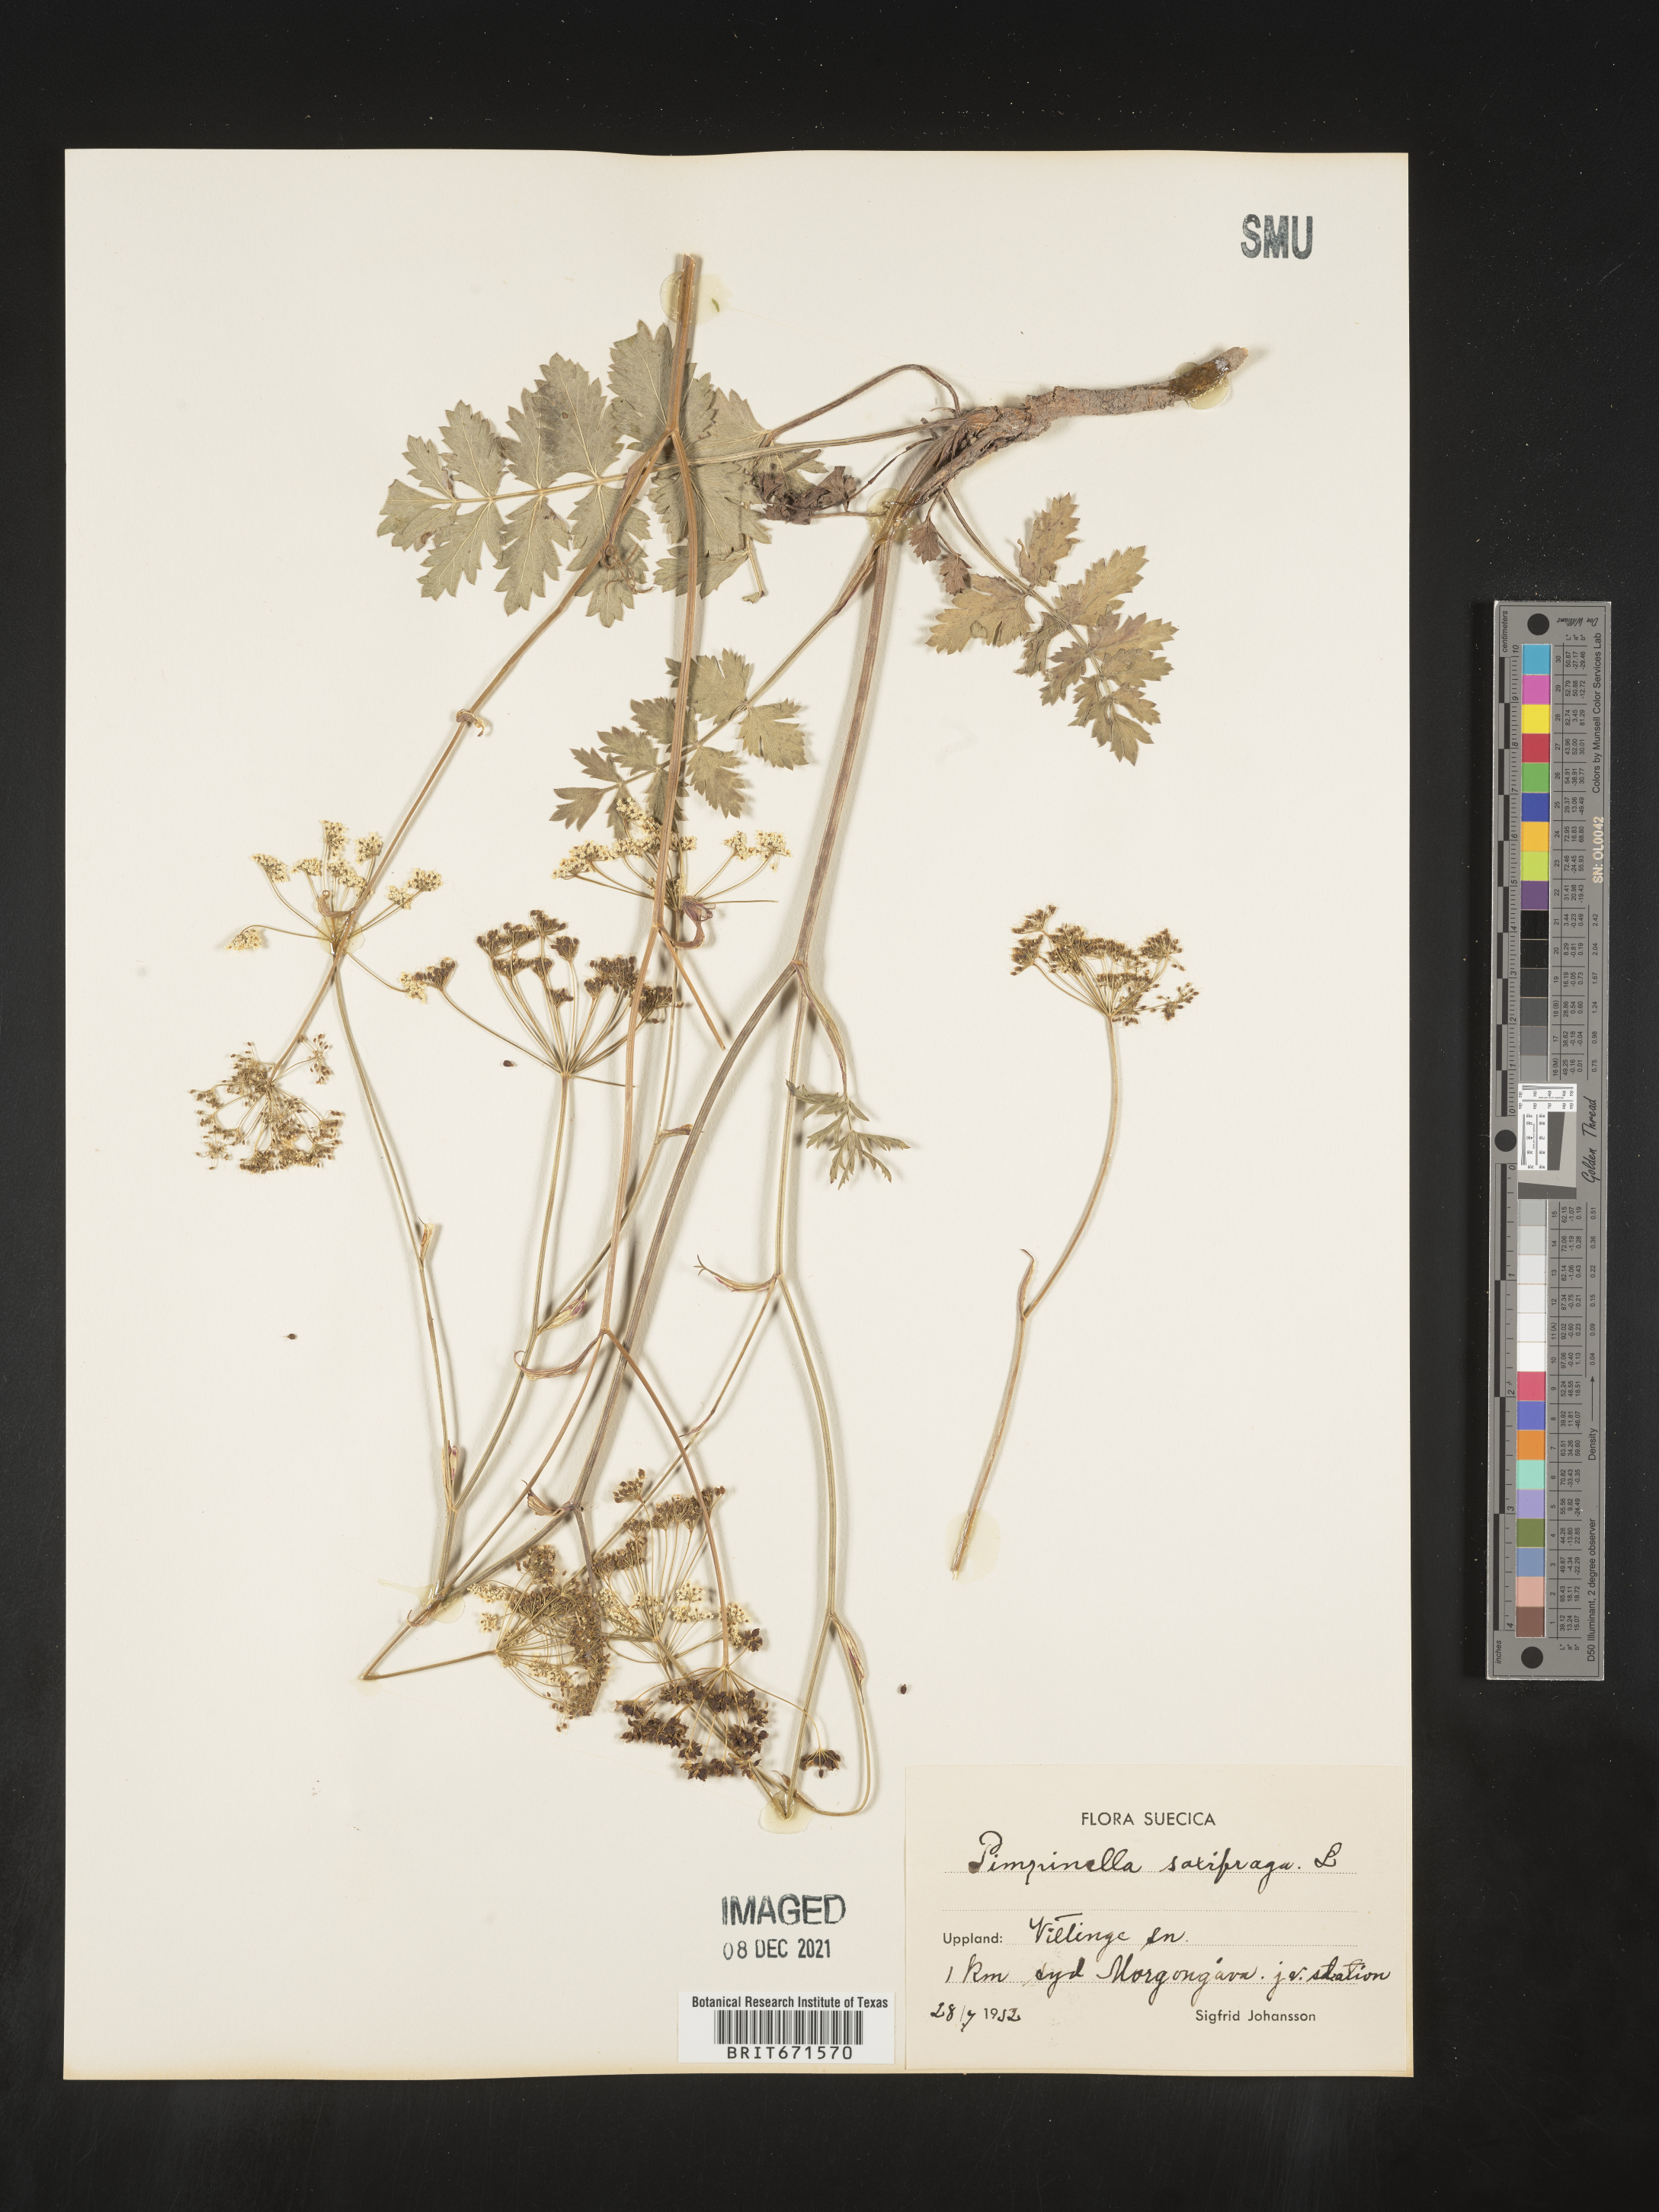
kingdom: Plantae
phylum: Tracheophyta
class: Magnoliopsida
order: Apiales
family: Apiaceae
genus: Pimpinella
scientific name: Pimpinella
